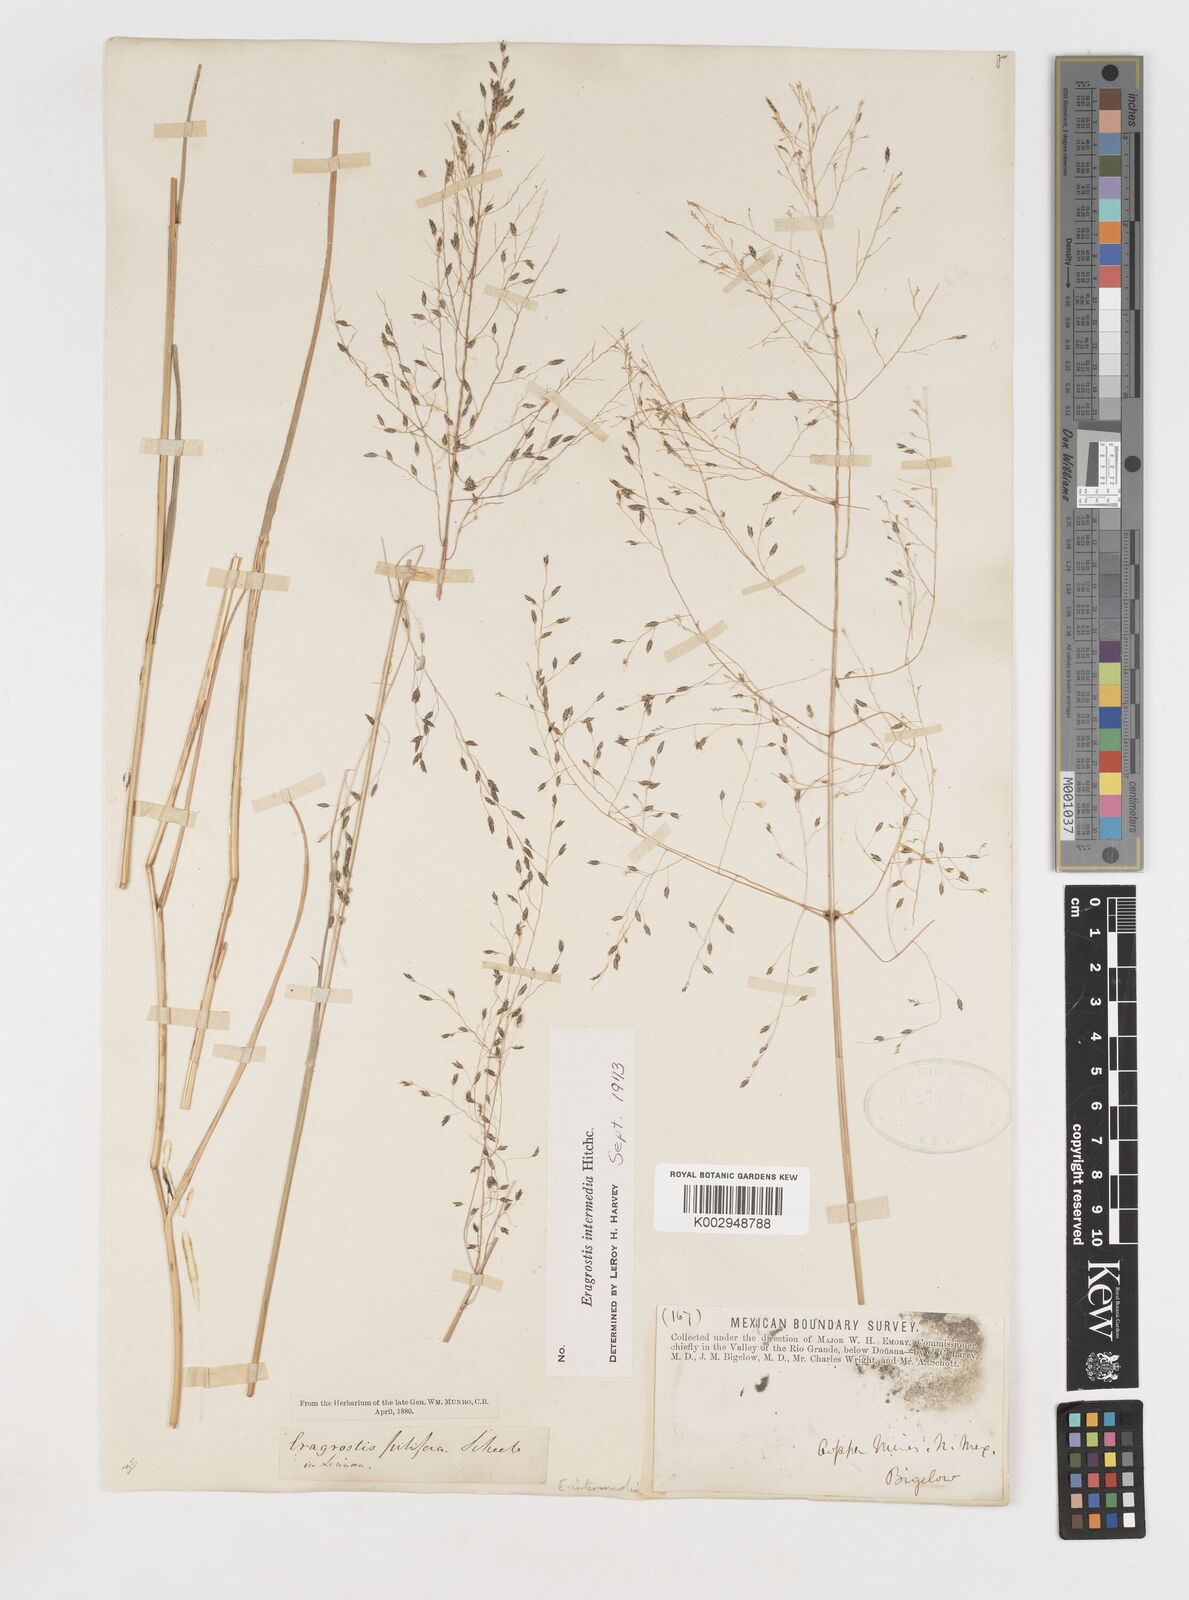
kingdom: Plantae
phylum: Tracheophyta
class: Liliopsida
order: Poales
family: Poaceae
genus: Eragrostis
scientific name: Eragrostis intermedia
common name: Plains love grass
